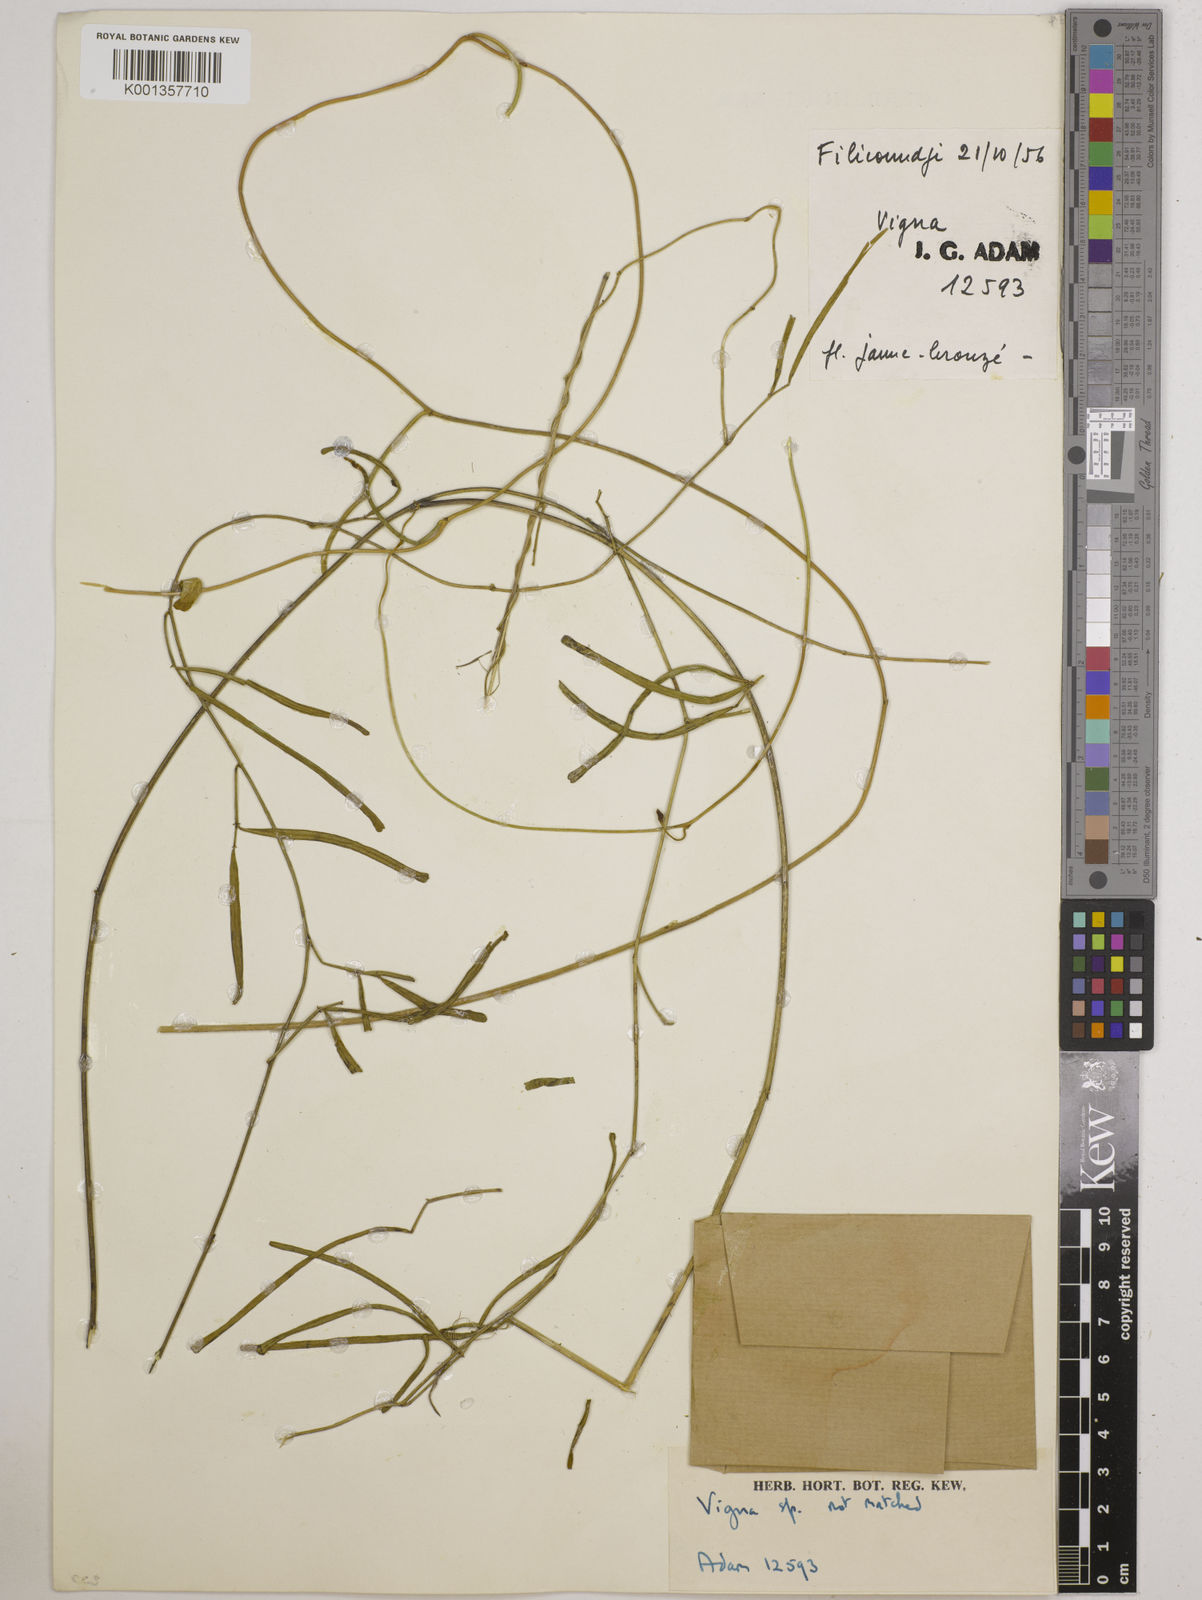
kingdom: Plantae
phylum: Tracheophyta
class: Magnoliopsida
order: Fabales
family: Fabaceae
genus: Vigna
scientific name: Vigna
